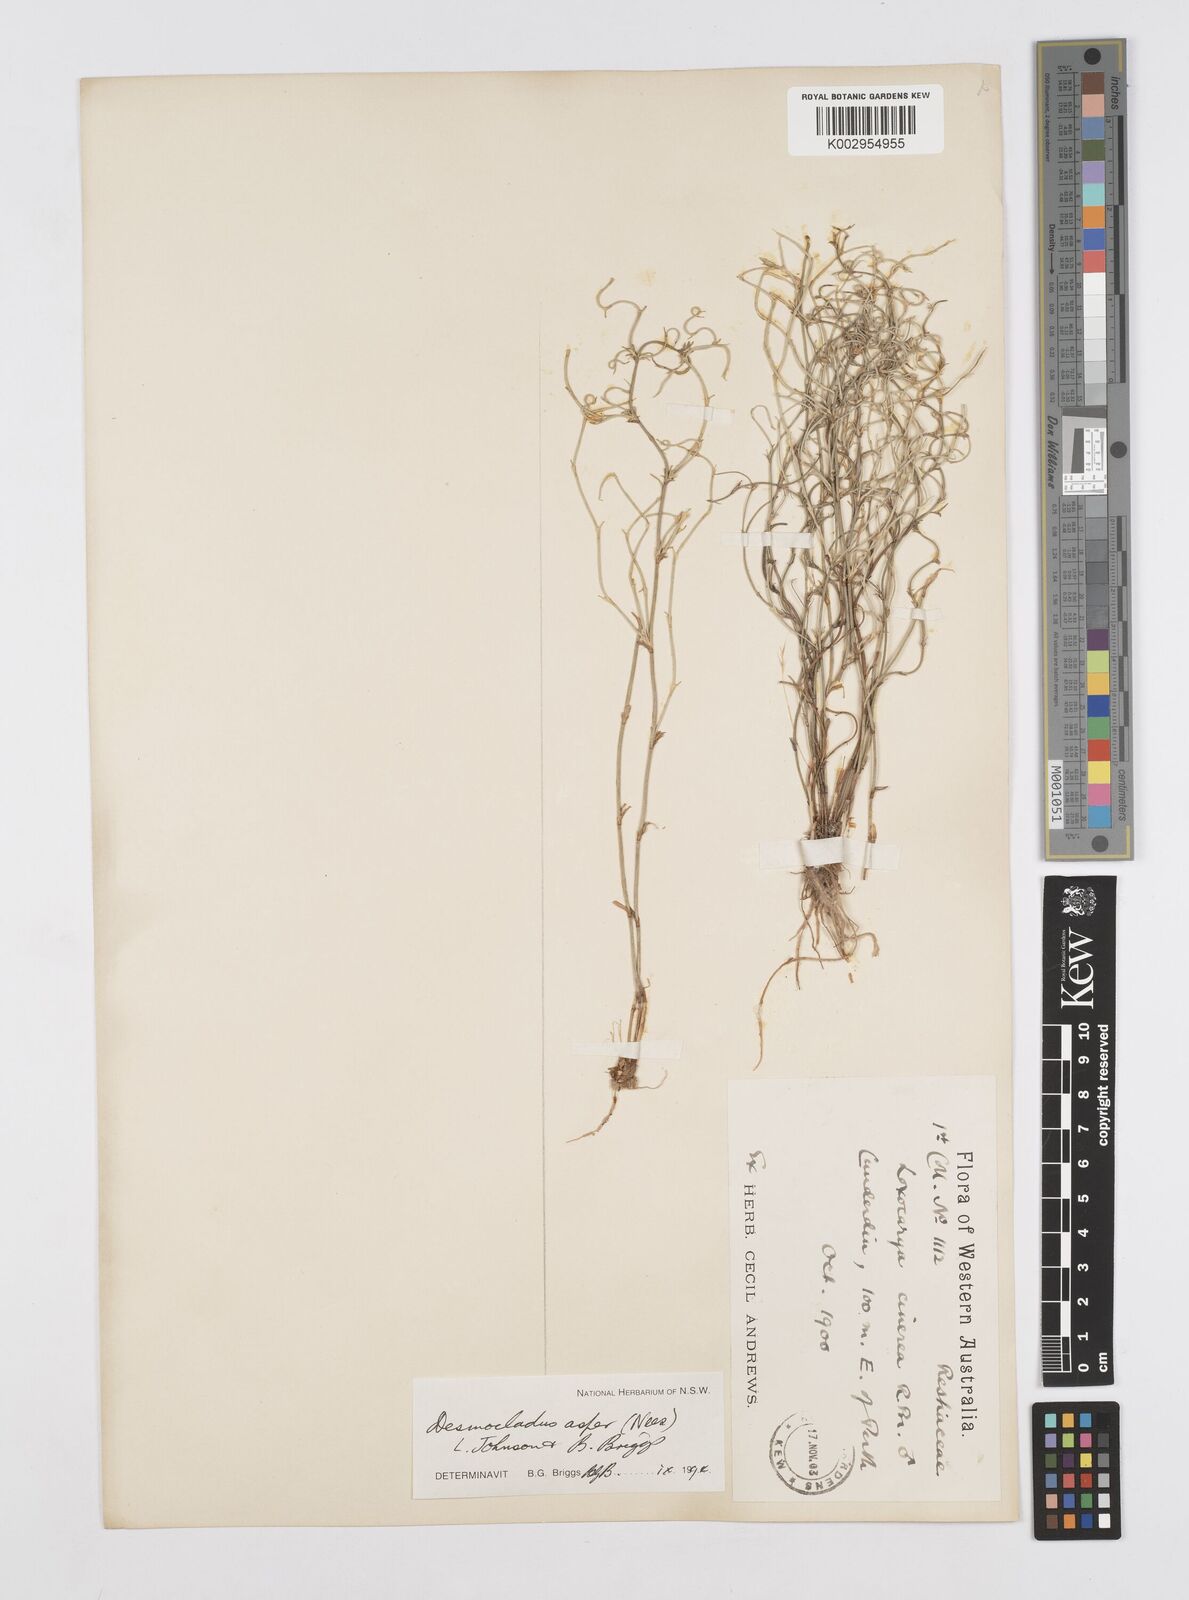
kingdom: Plantae
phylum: Tracheophyta
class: Liliopsida
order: Poales
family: Restionaceae
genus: Desmocladus
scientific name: Desmocladus asper
